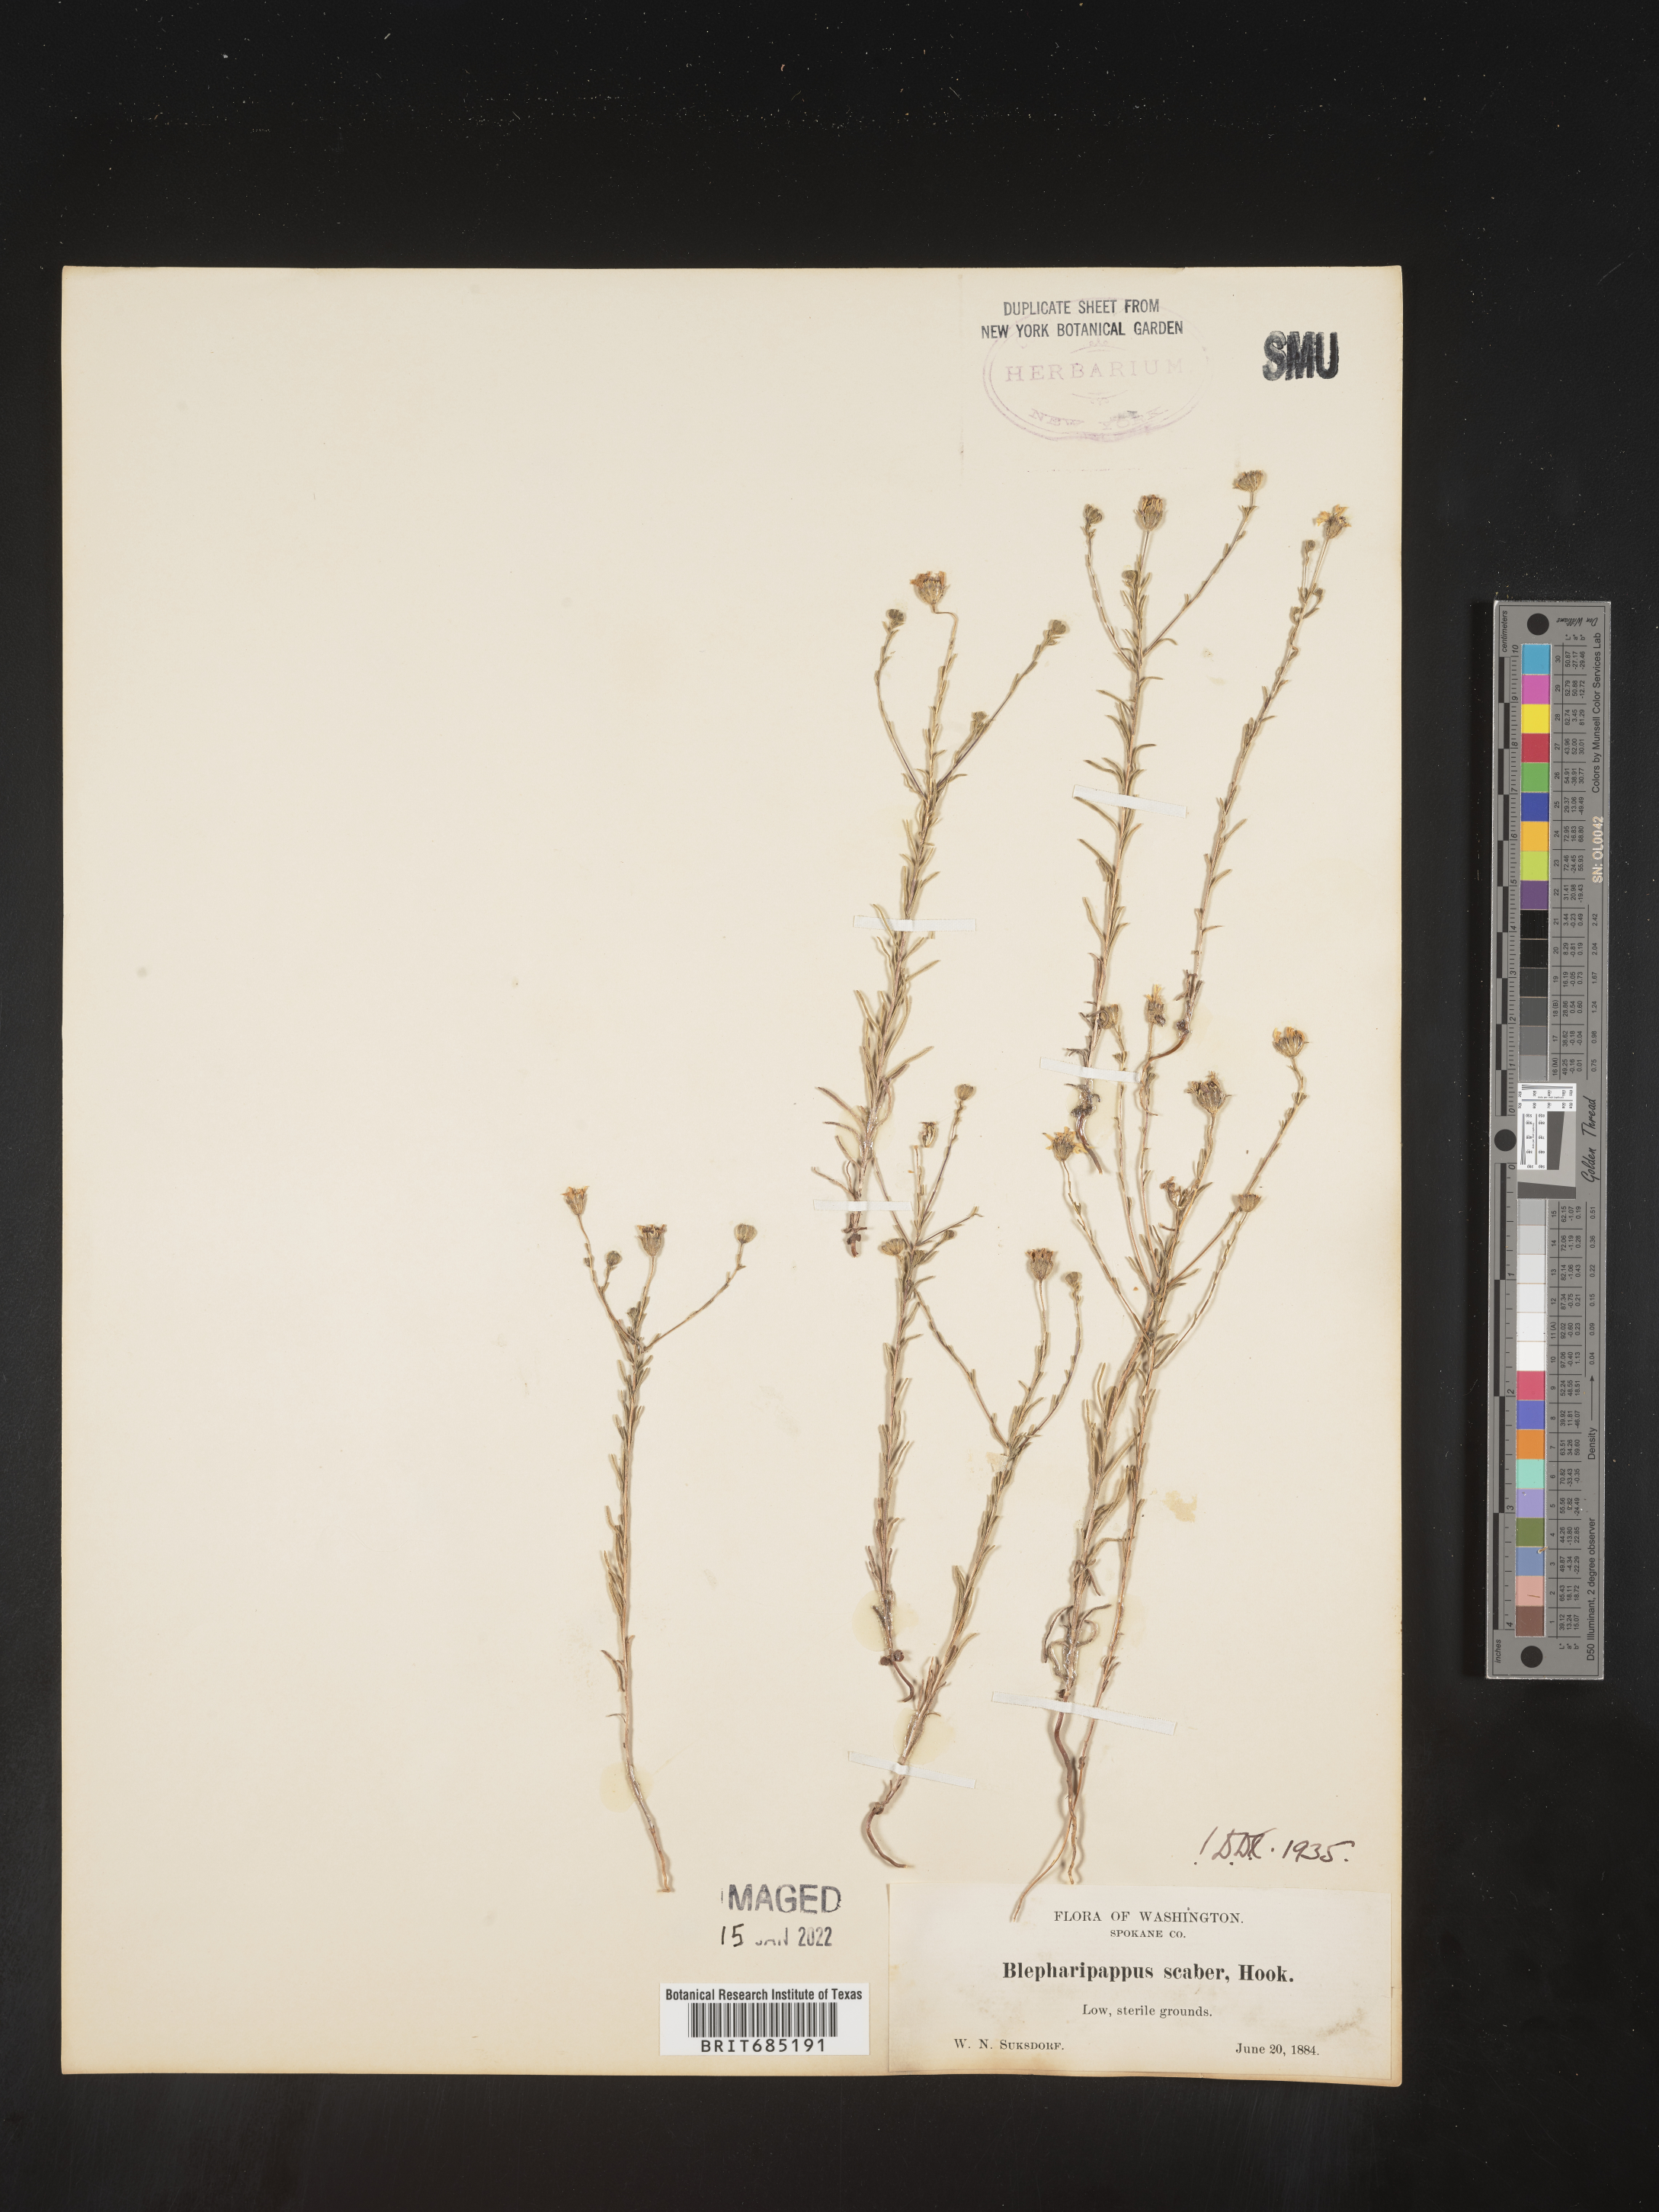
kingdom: Plantae
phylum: Tracheophyta
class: Magnoliopsida
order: Asterales
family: Asteraceae
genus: Blepharipappus
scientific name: Blepharipappus
